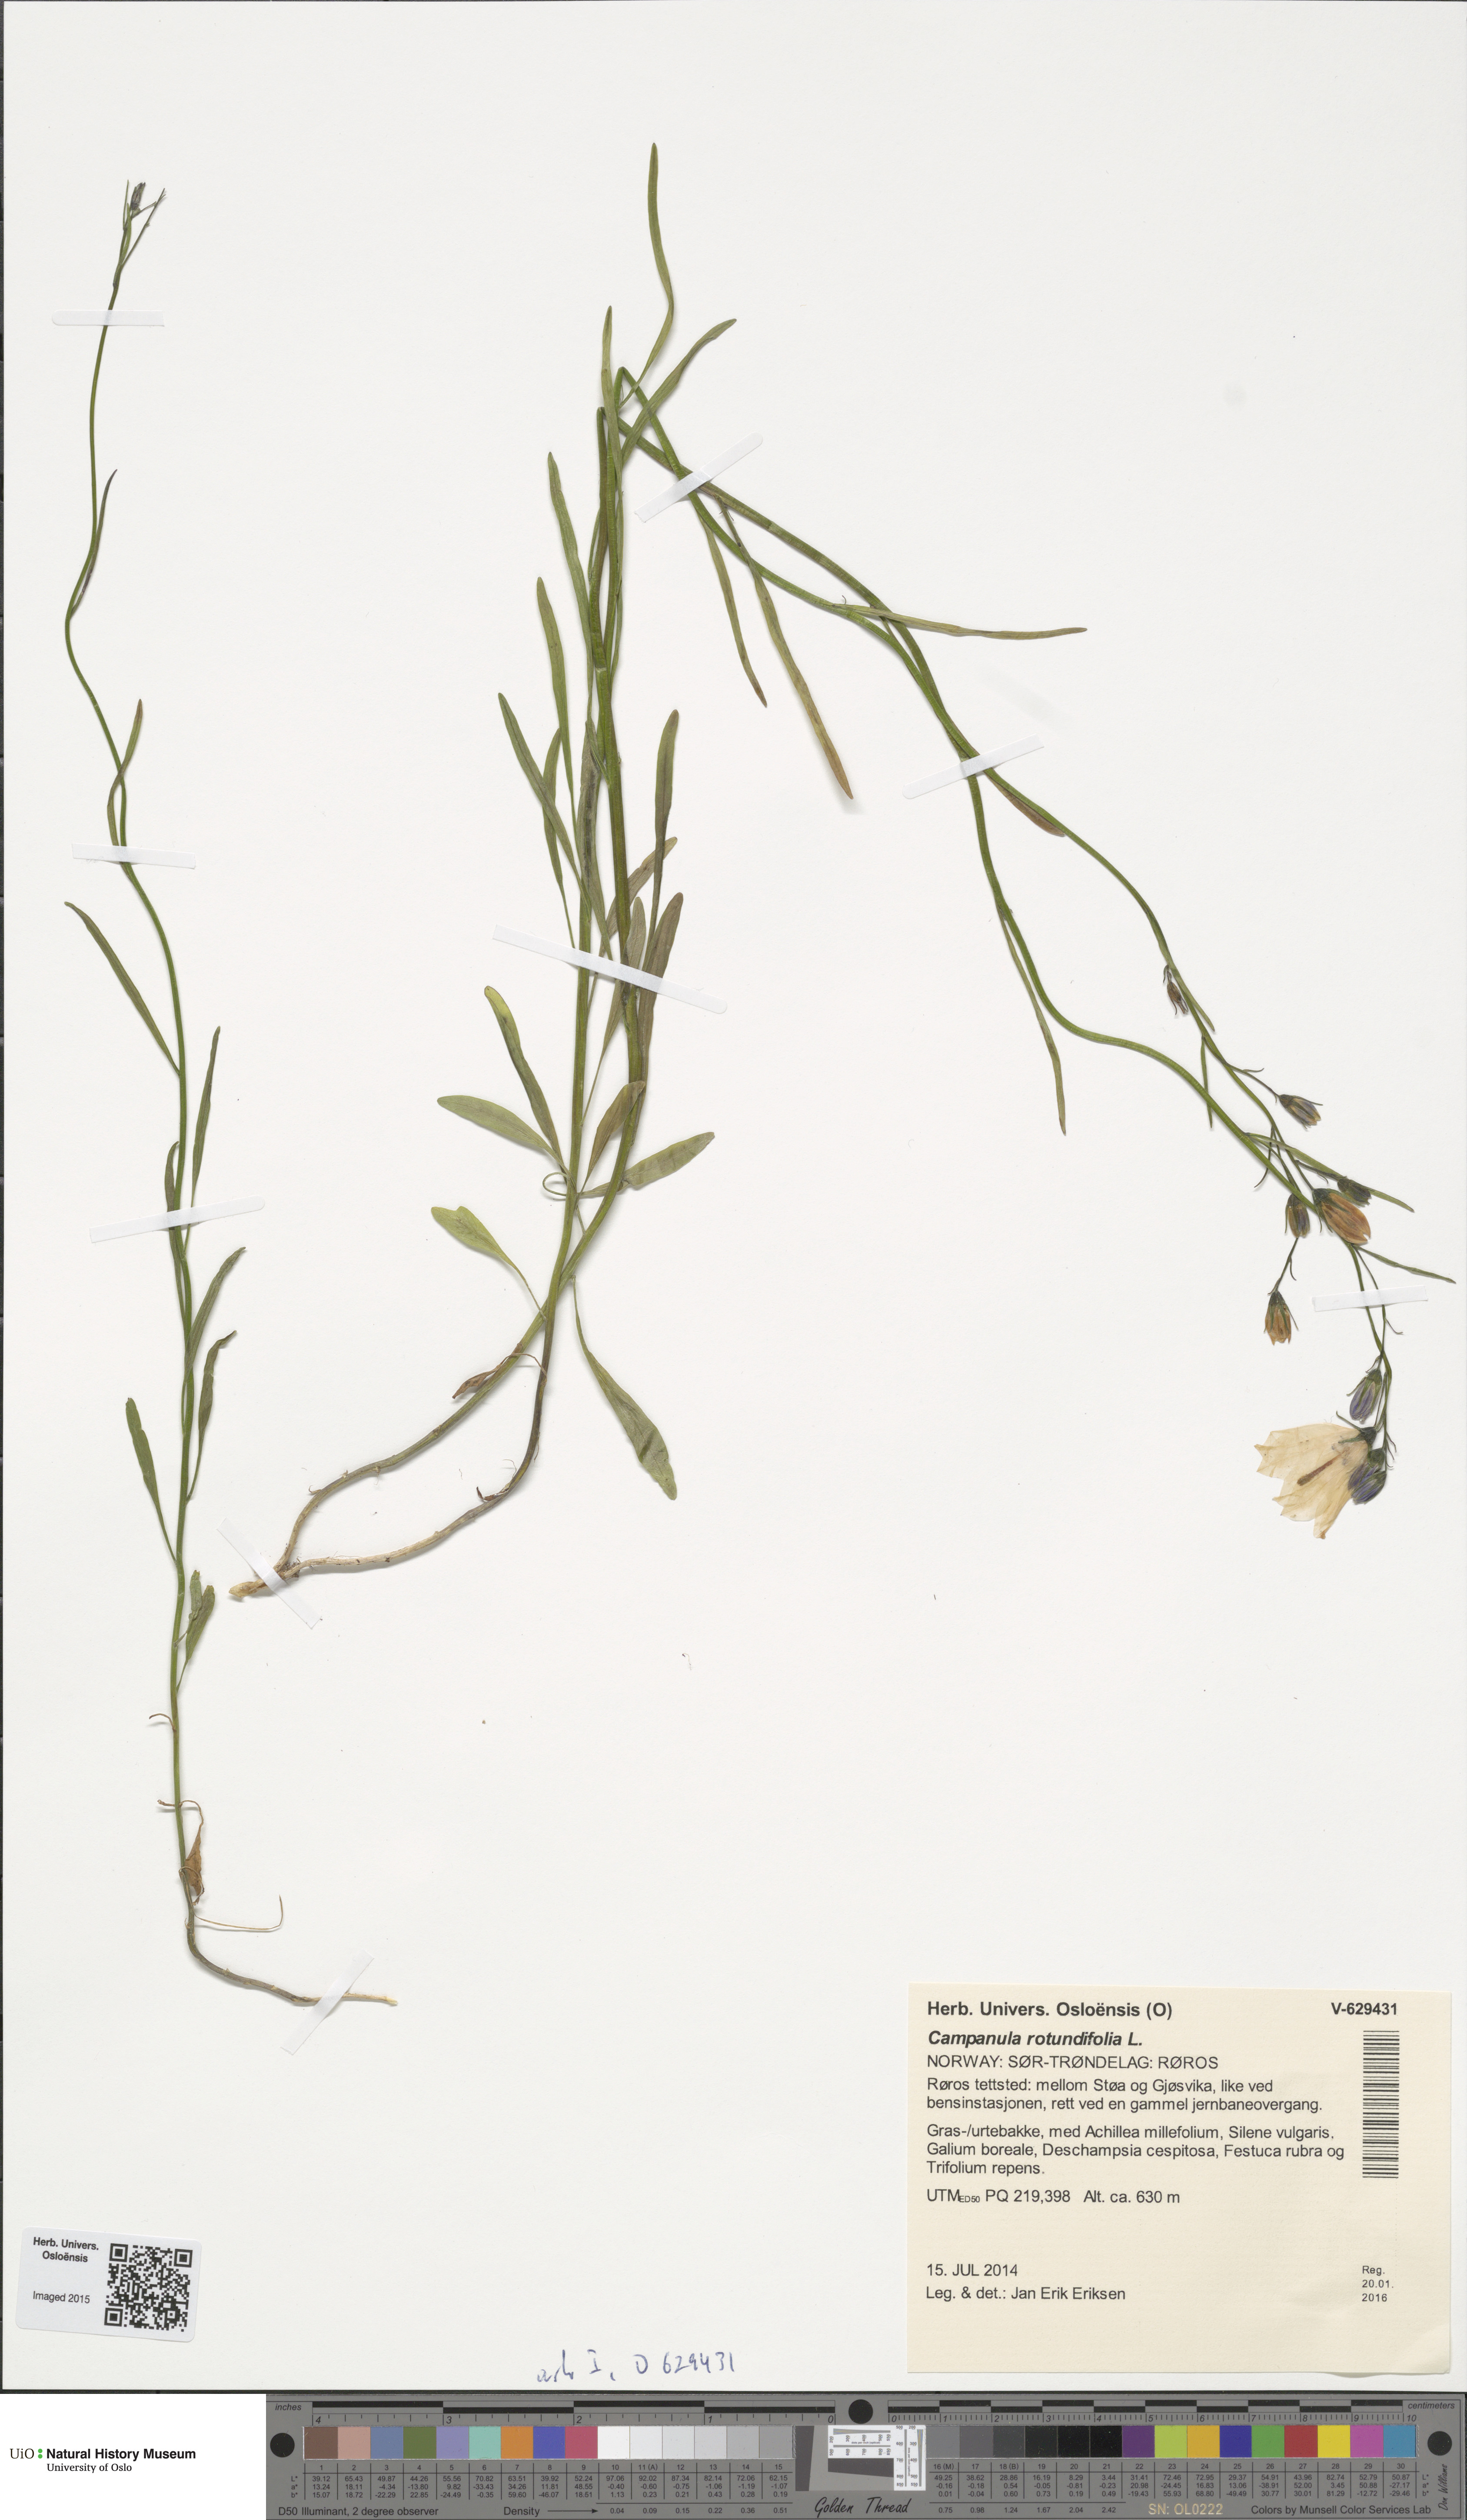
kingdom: Plantae
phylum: Tracheophyta
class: Magnoliopsida
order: Asterales
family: Campanulaceae
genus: Campanula
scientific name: Campanula rotundifolia
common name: Harebell
